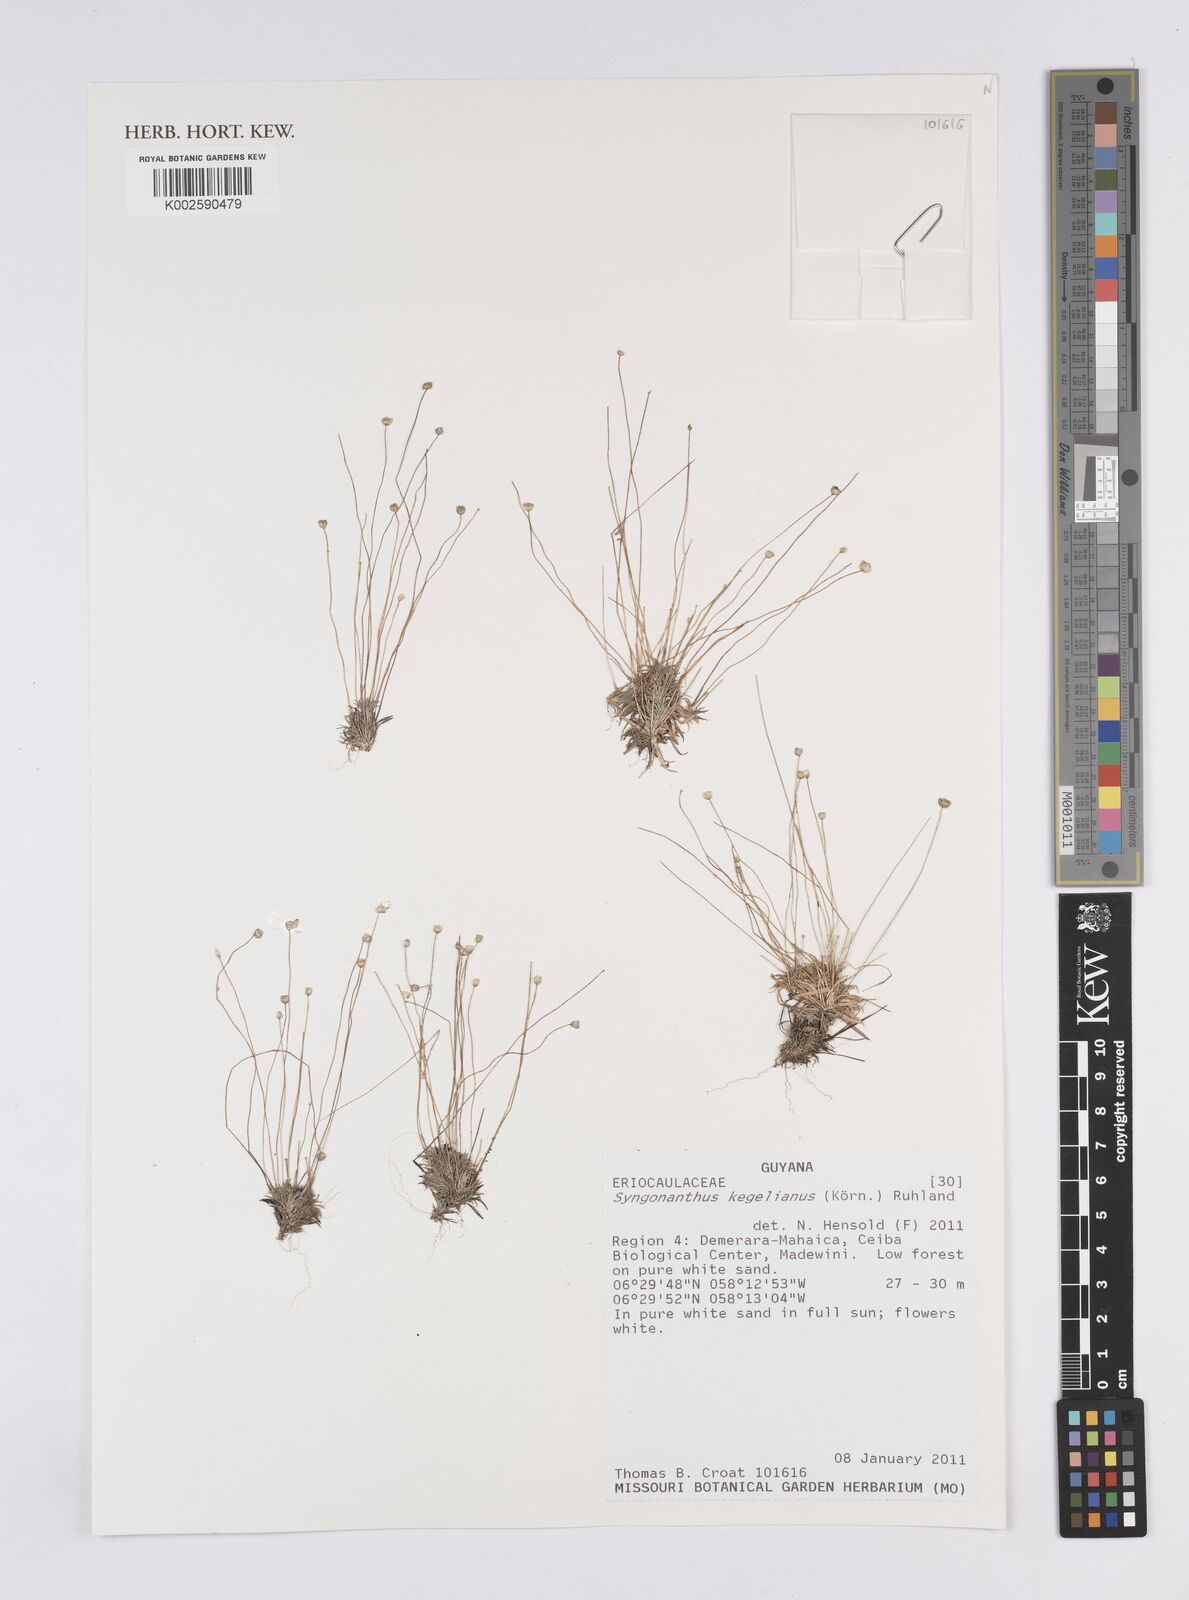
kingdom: Plantae
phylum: Tracheophyta
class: Liliopsida
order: Poales
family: Eriocaulaceae
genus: Comanthera
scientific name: Comanthera kegeliana
